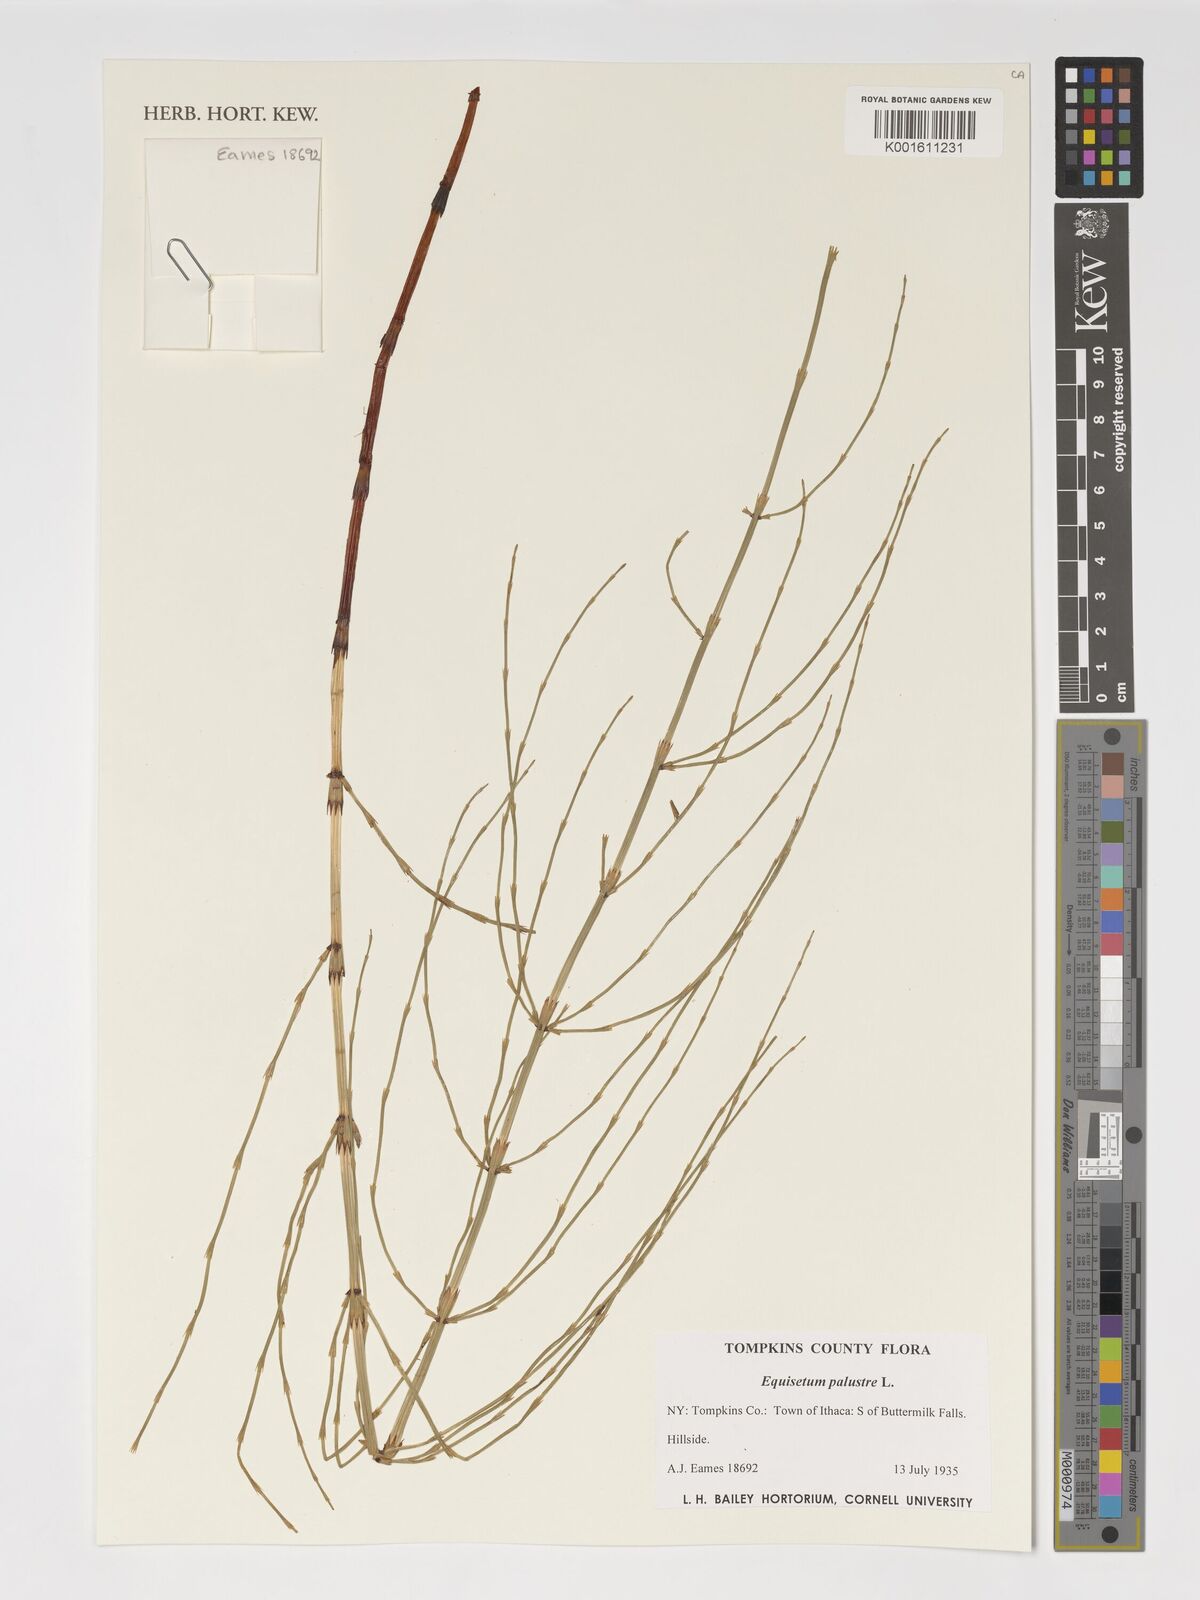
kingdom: Plantae
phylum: Tracheophyta
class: Polypodiopsida
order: Equisetales
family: Equisetaceae
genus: Equisetum
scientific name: Equisetum palustre
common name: Marsh horsetail
